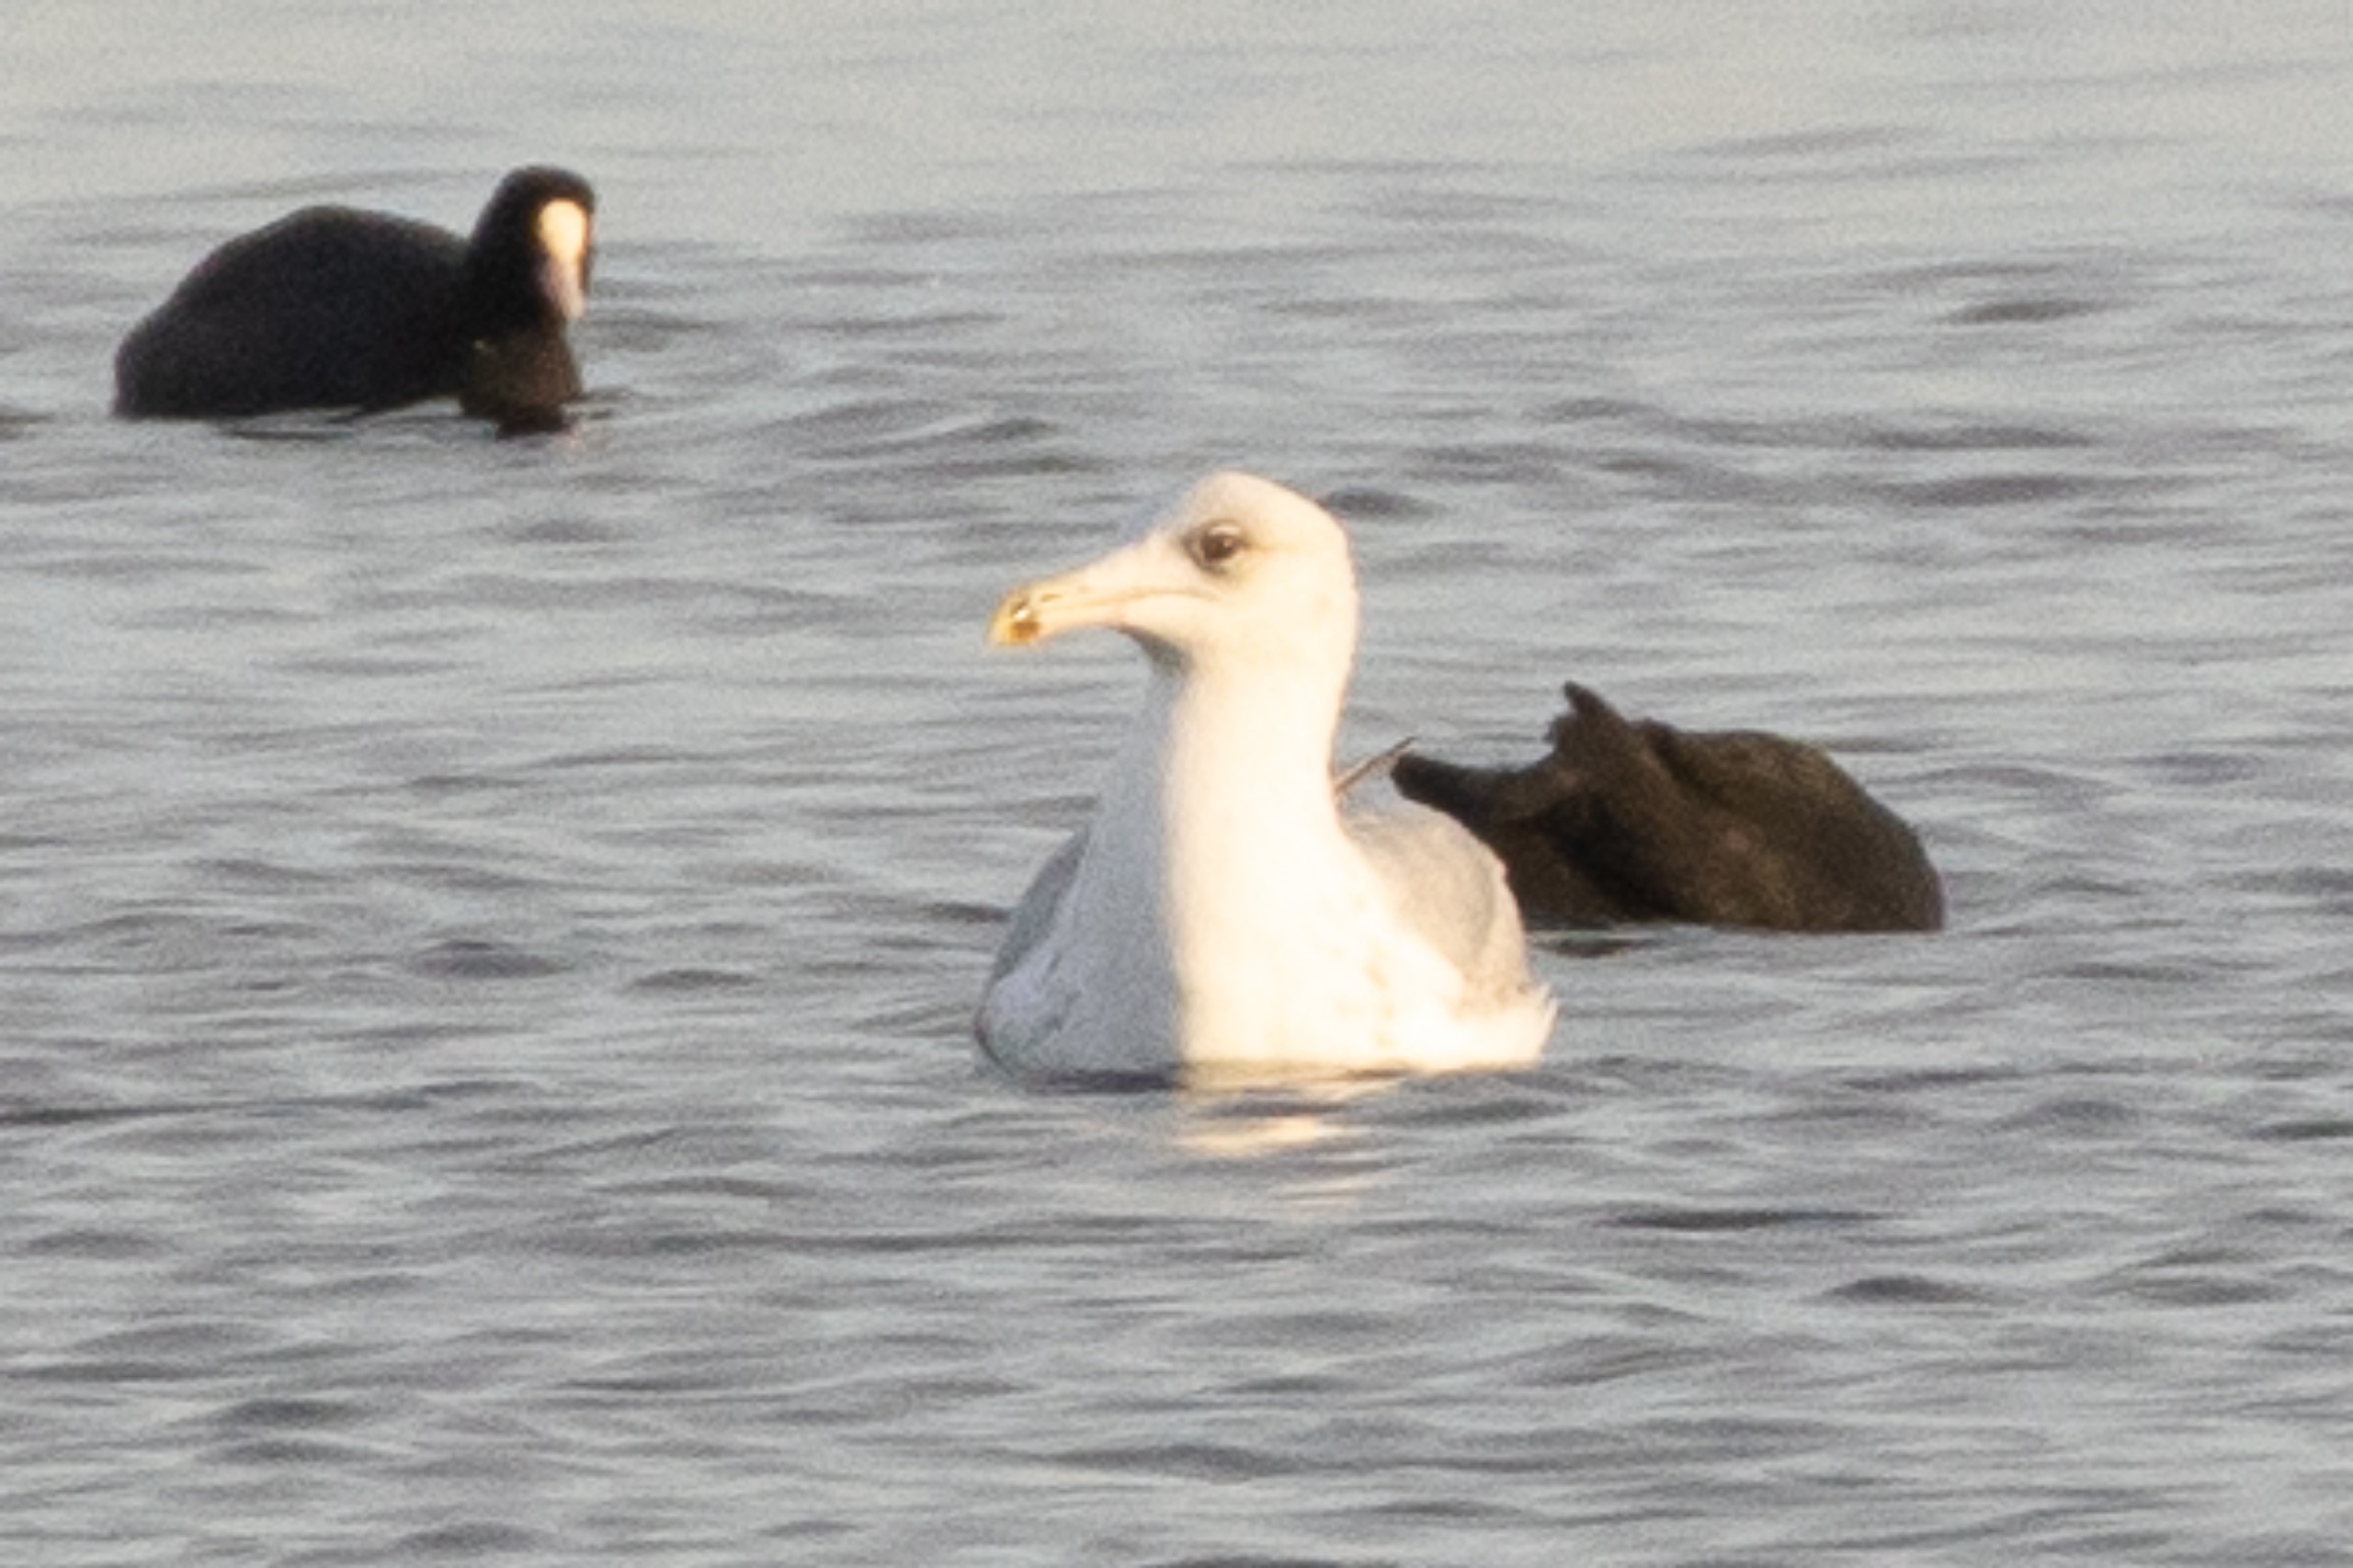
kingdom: Animalia
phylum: Chordata
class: Aves
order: Charadriiformes
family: Laridae
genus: Larus
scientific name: Larus argentatus
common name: Sølvmåge
